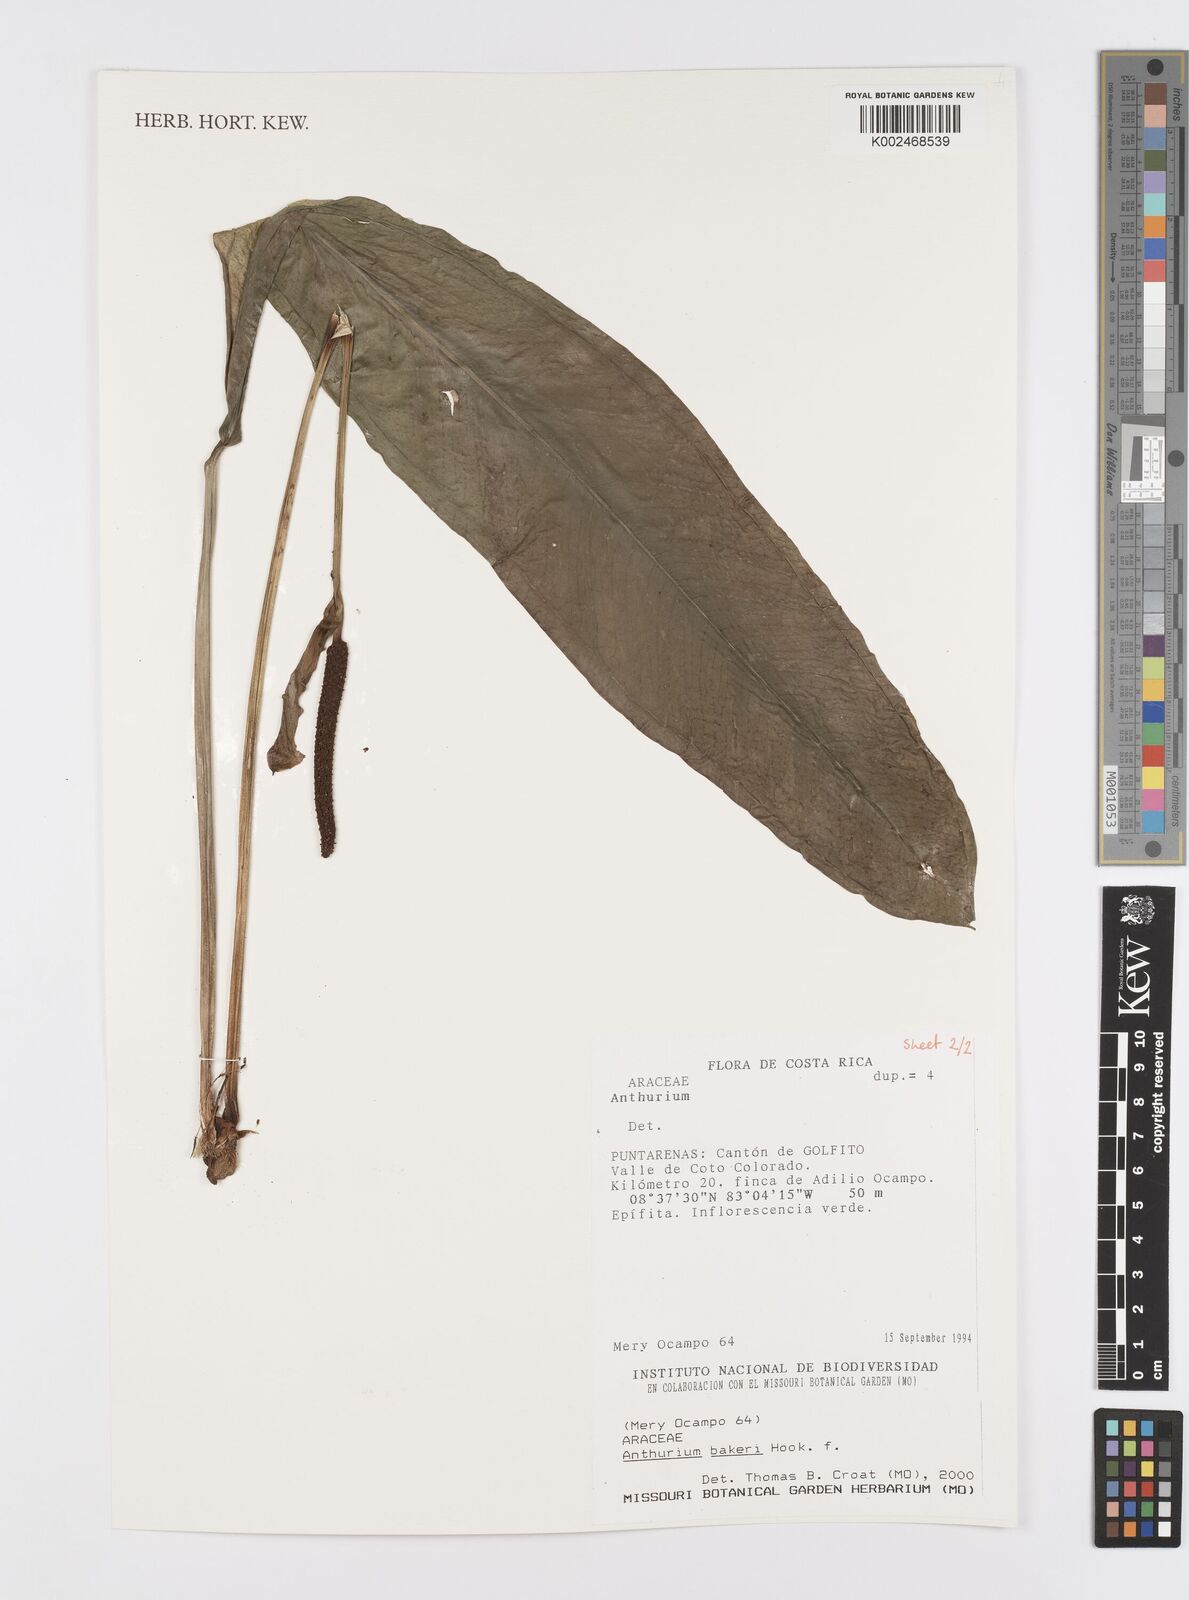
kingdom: Plantae
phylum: Tracheophyta
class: Liliopsida
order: Alismatales
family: Araceae
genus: Anthurium
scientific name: Anthurium bakeri
